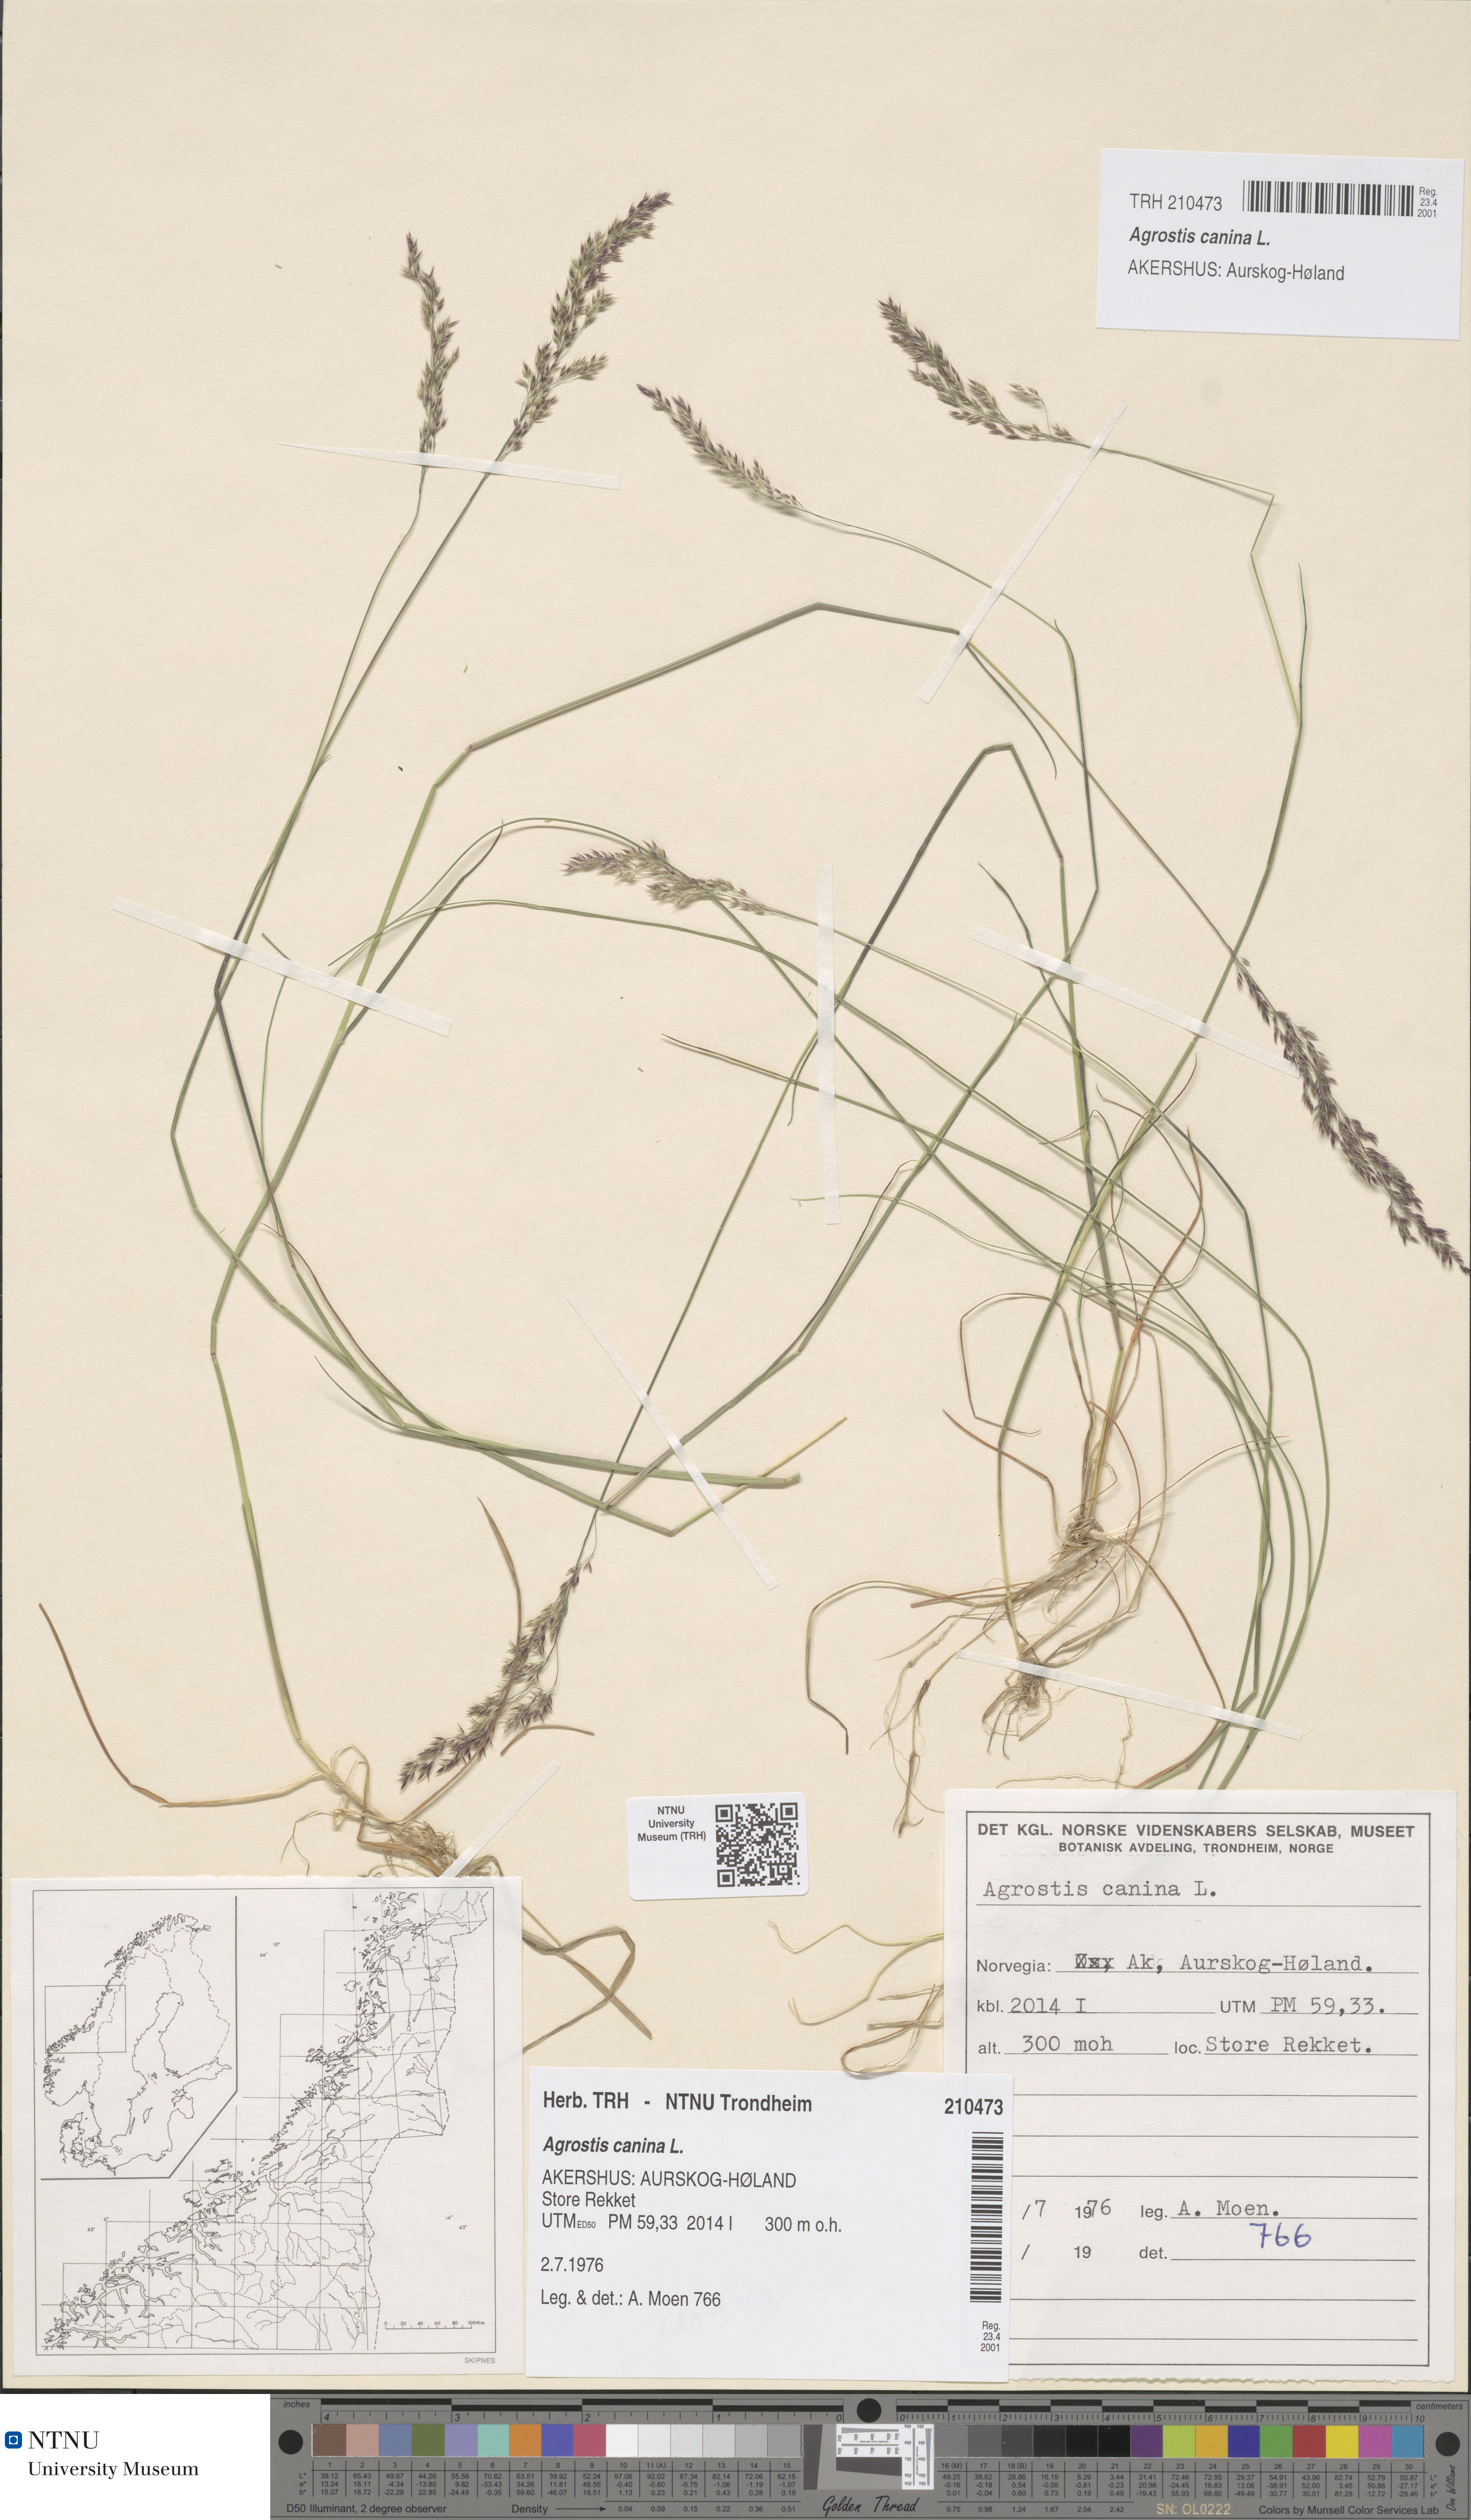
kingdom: Plantae
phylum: Tracheophyta
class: Liliopsida
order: Poales
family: Poaceae
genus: Agrostis
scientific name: Agrostis canina
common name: Velvet bent
